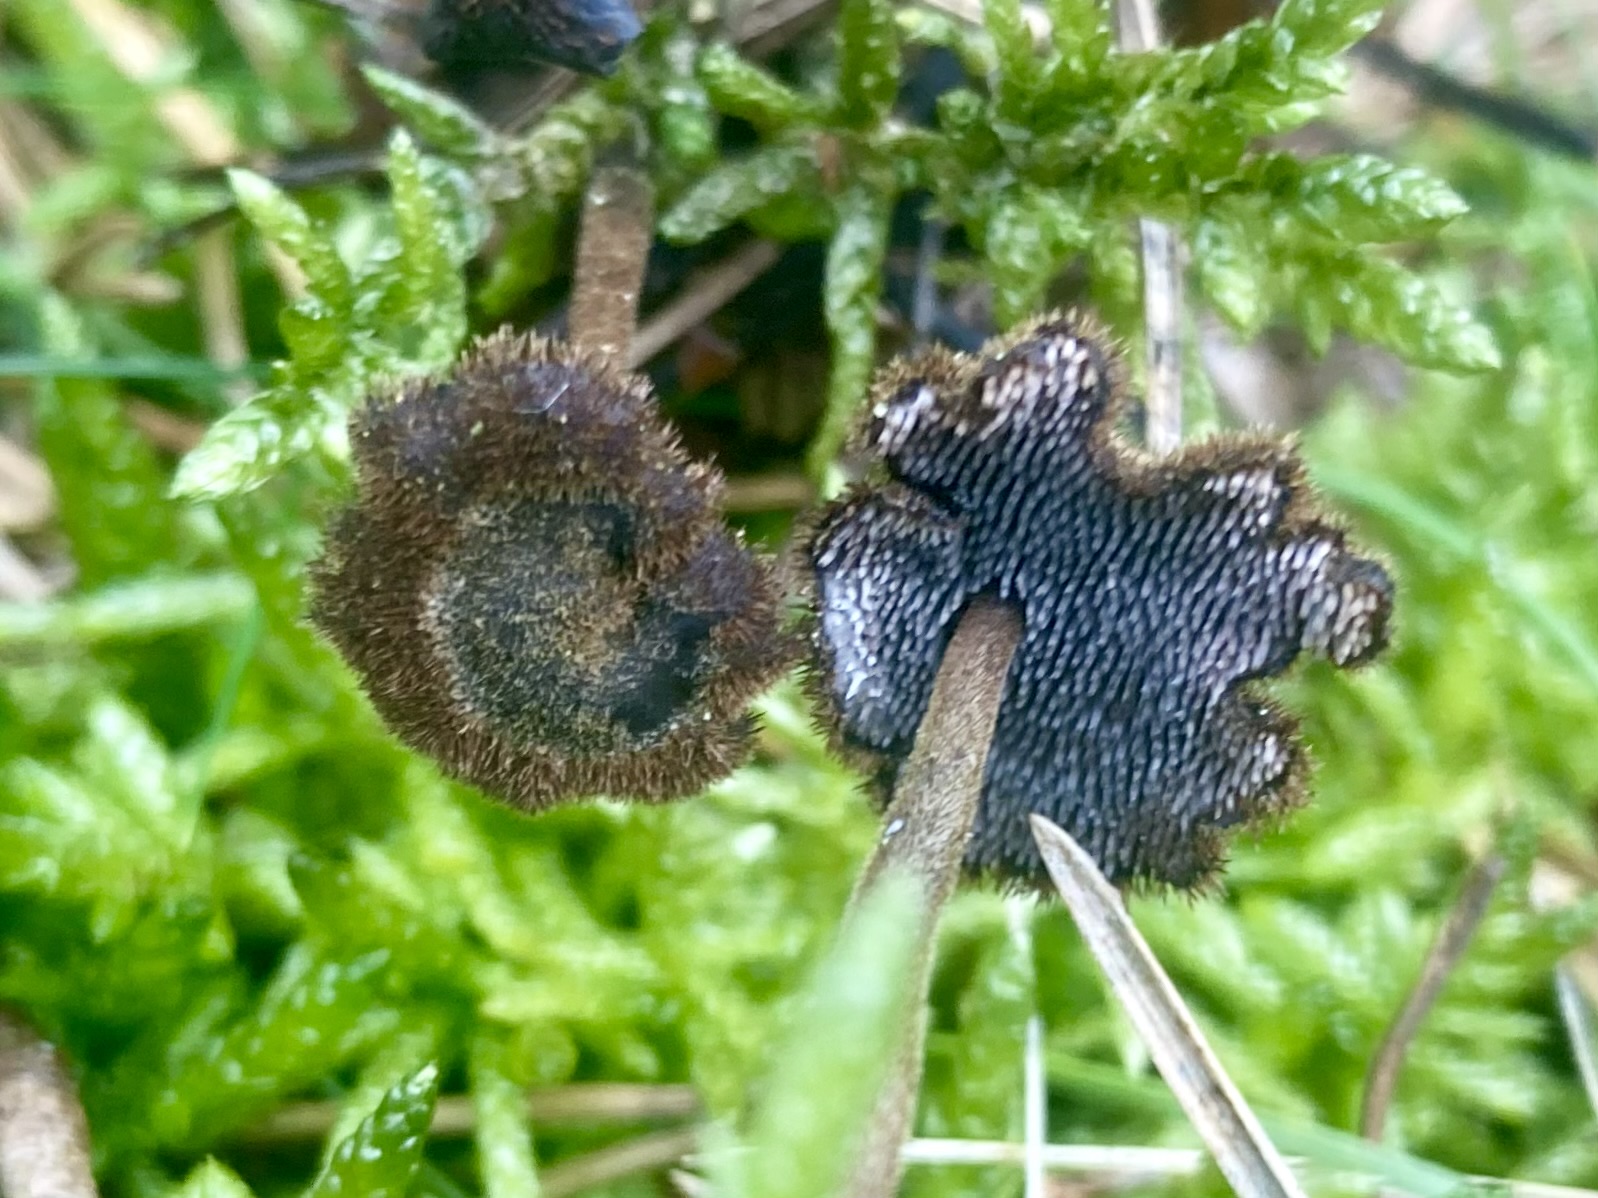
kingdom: Fungi
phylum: Basidiomycota
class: Agaricomycetes
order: Russulales
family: Auriscalpiaceae
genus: Auriscalpium
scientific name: Auriscalpium vulgare
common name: koglepigsvamp
